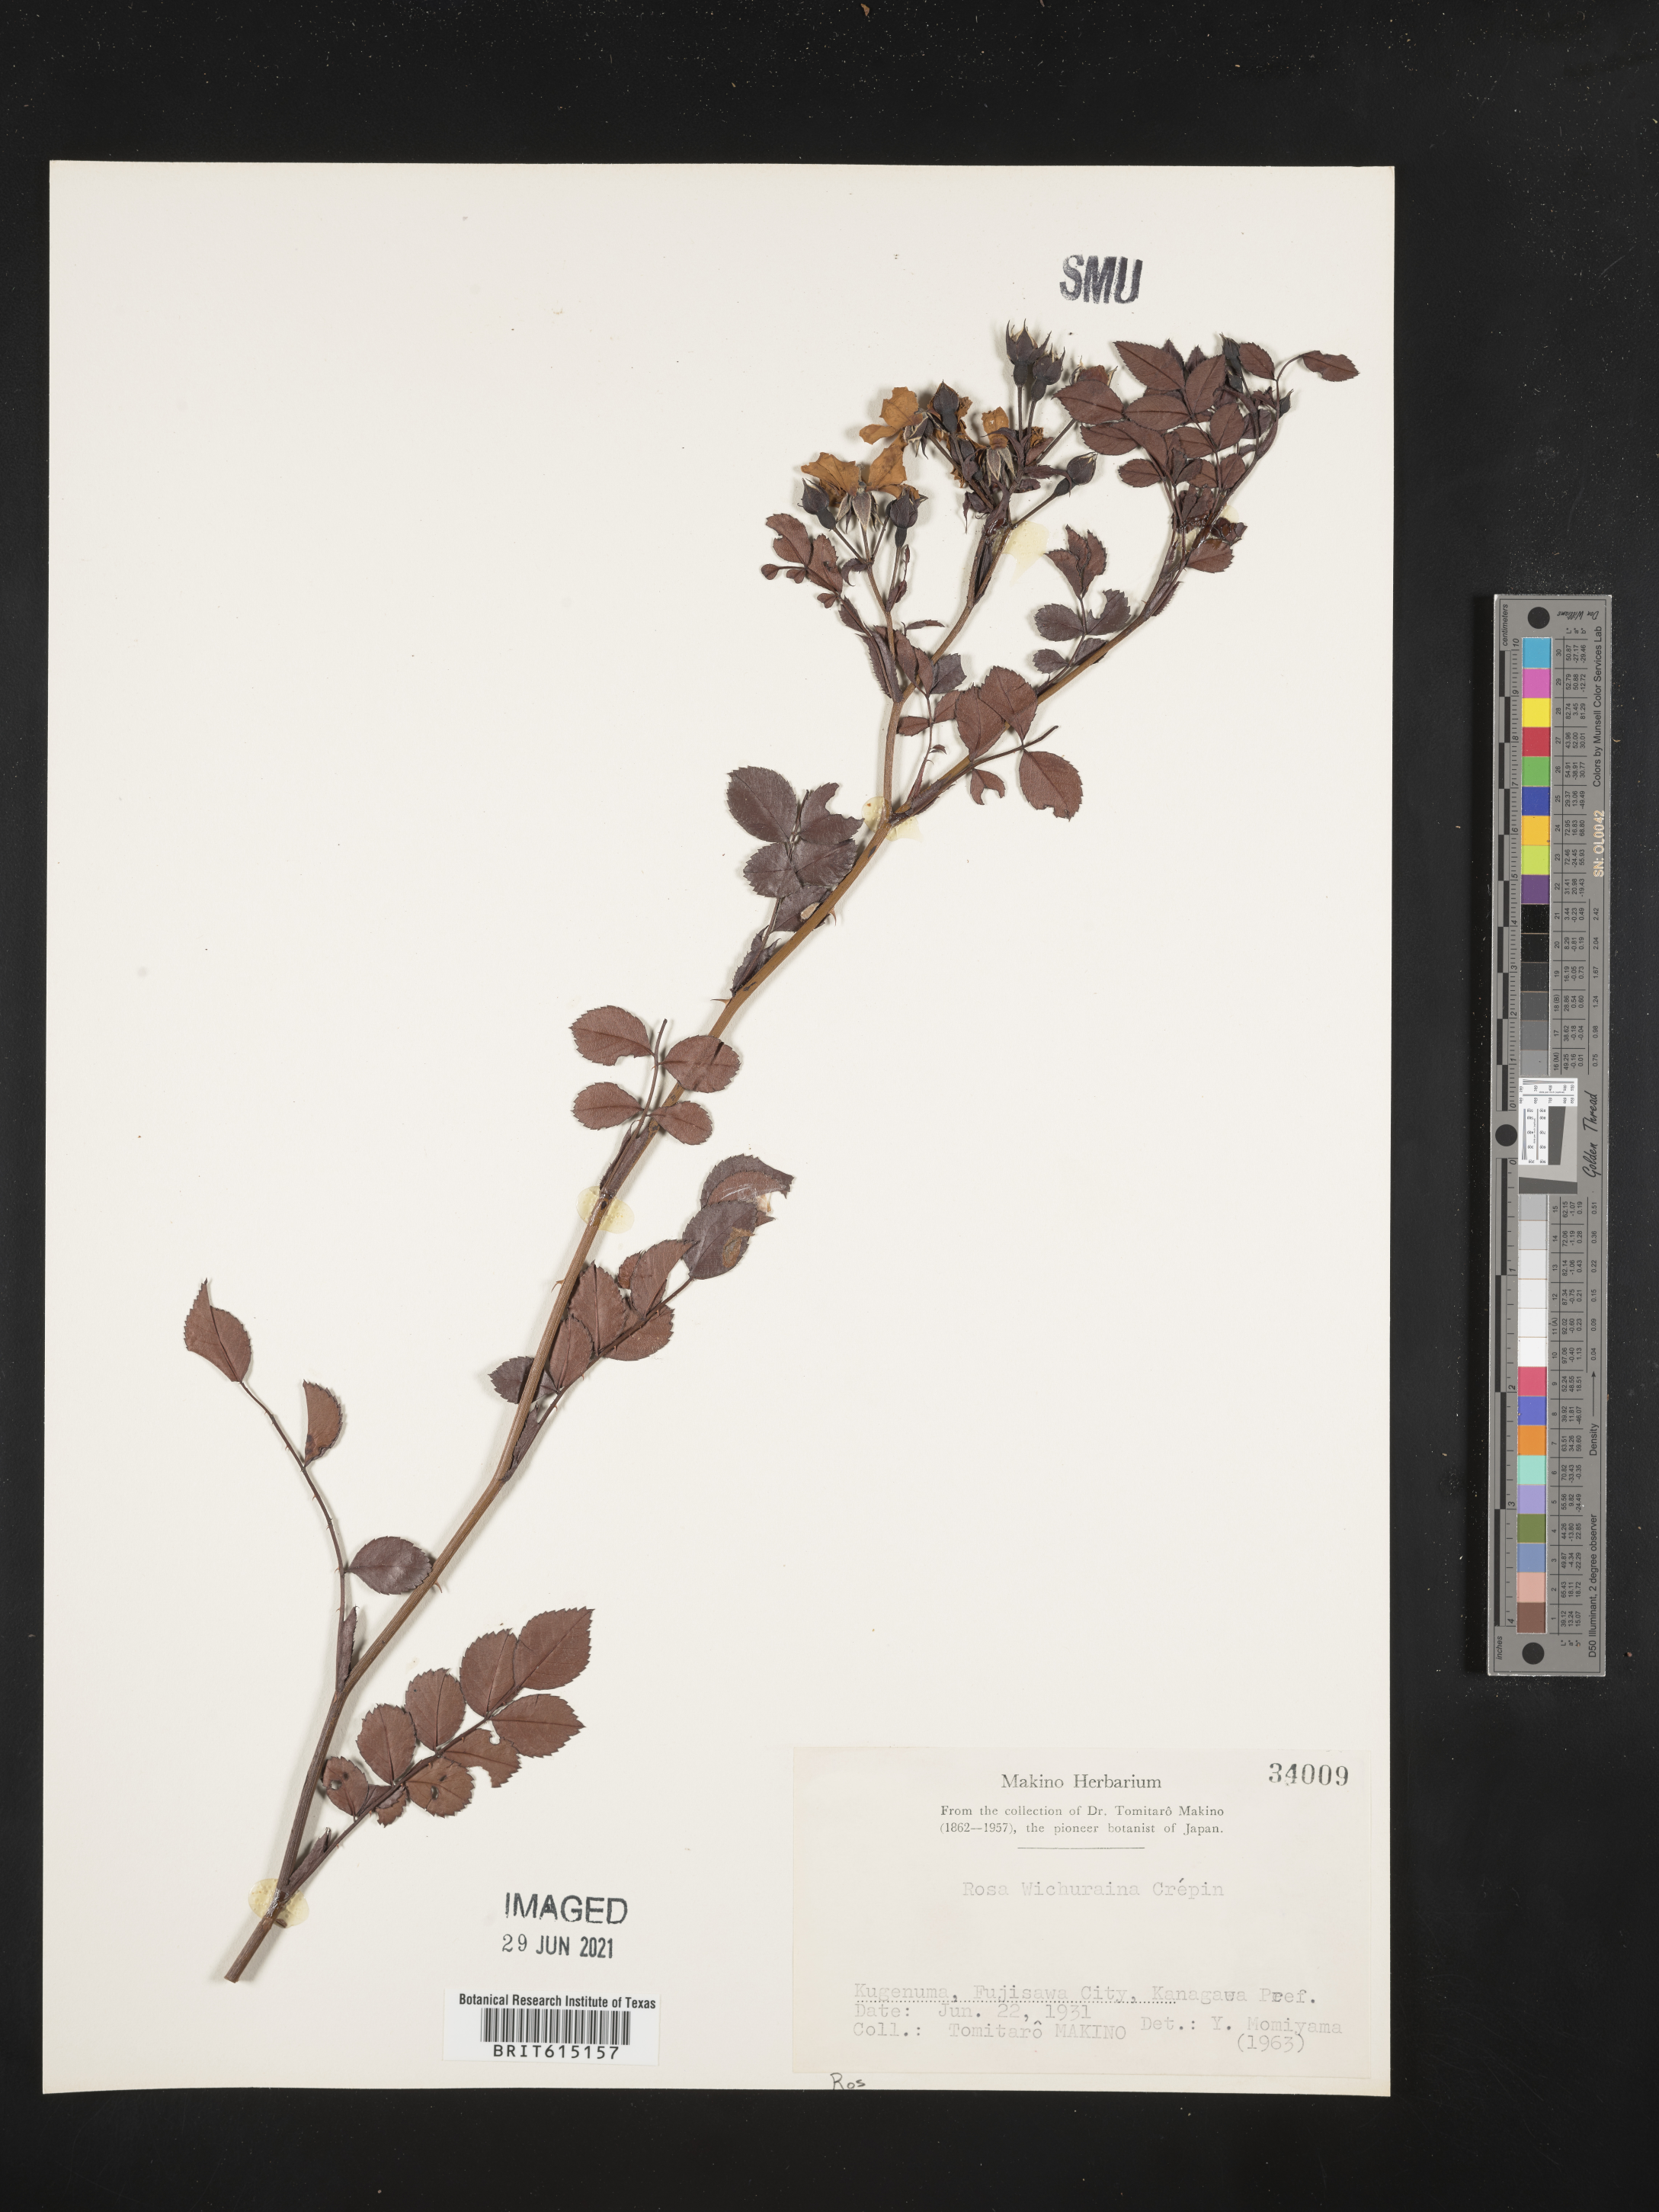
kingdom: Plantae
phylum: Tracheophyta
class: Magnoliopsida
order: Rosales
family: Rosaceae
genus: Rosa
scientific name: Rosa lucieae
